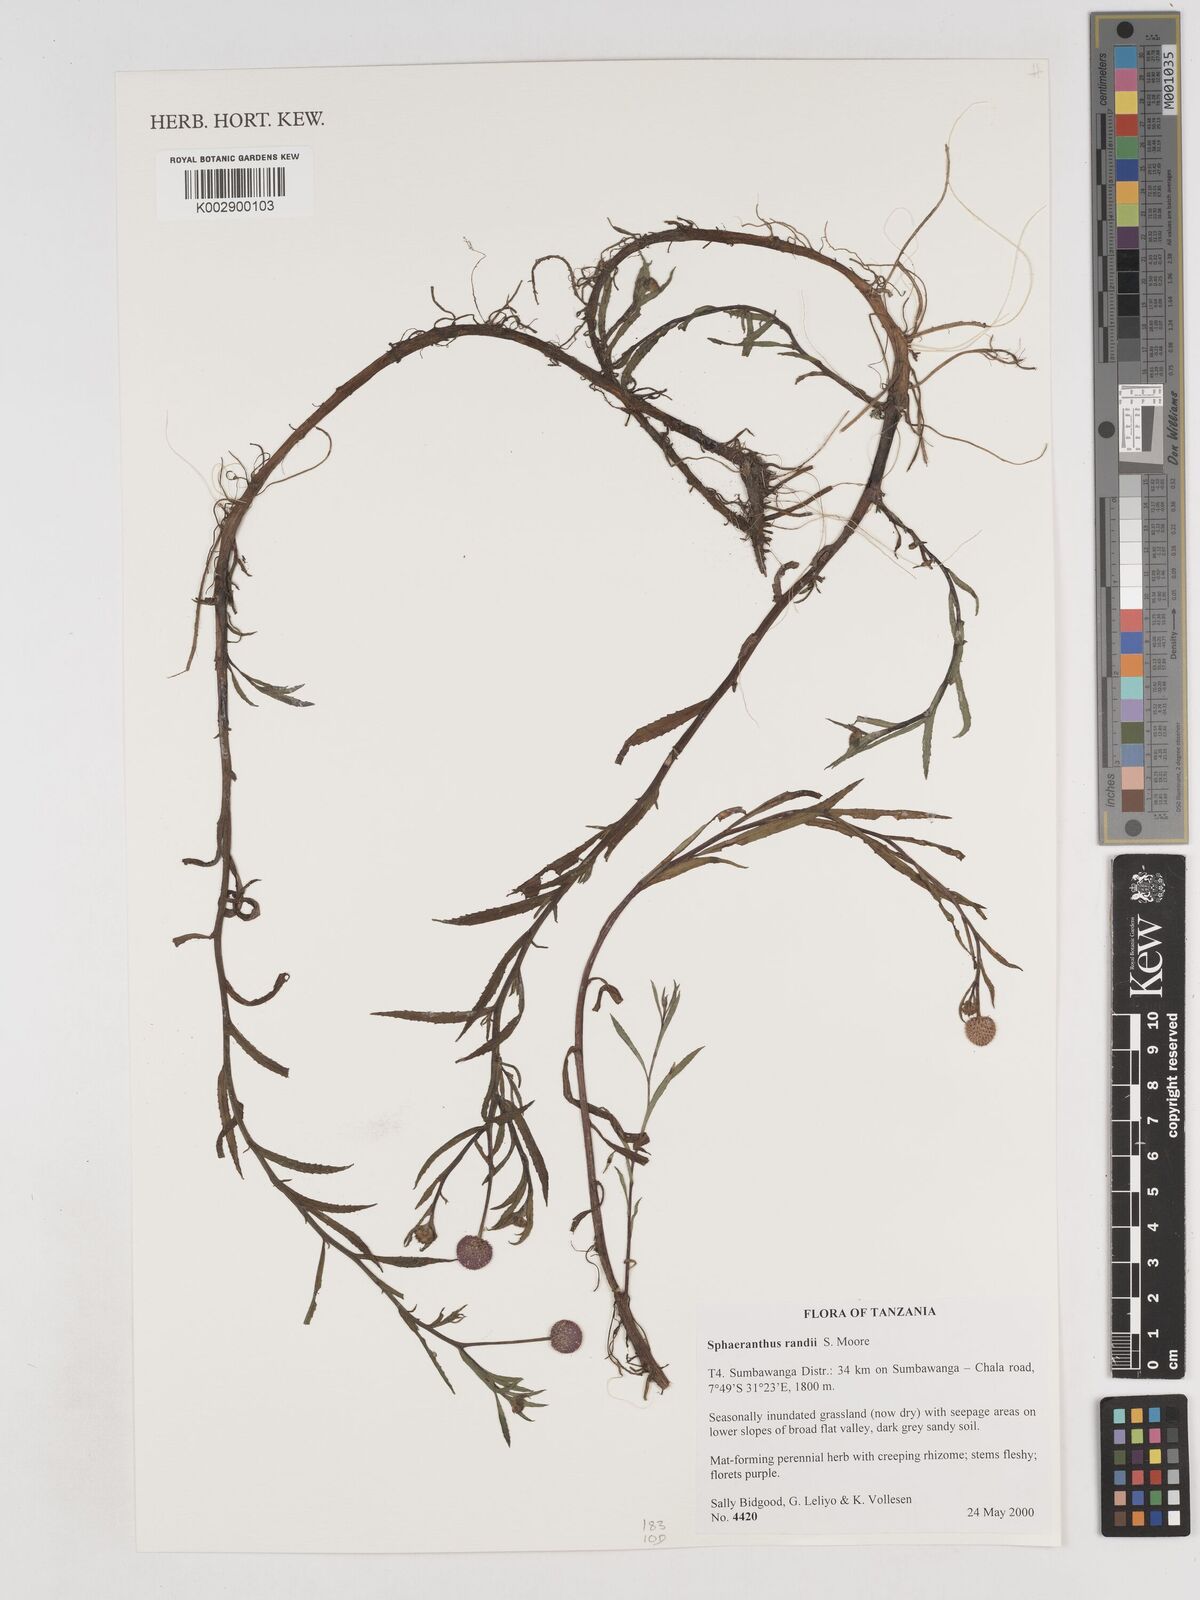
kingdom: Plantae
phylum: Tracheophyta
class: Magnoliopsida
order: Asterales
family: Asteraceae
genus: Sphaeranthus
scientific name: Sphaeranthus randii
